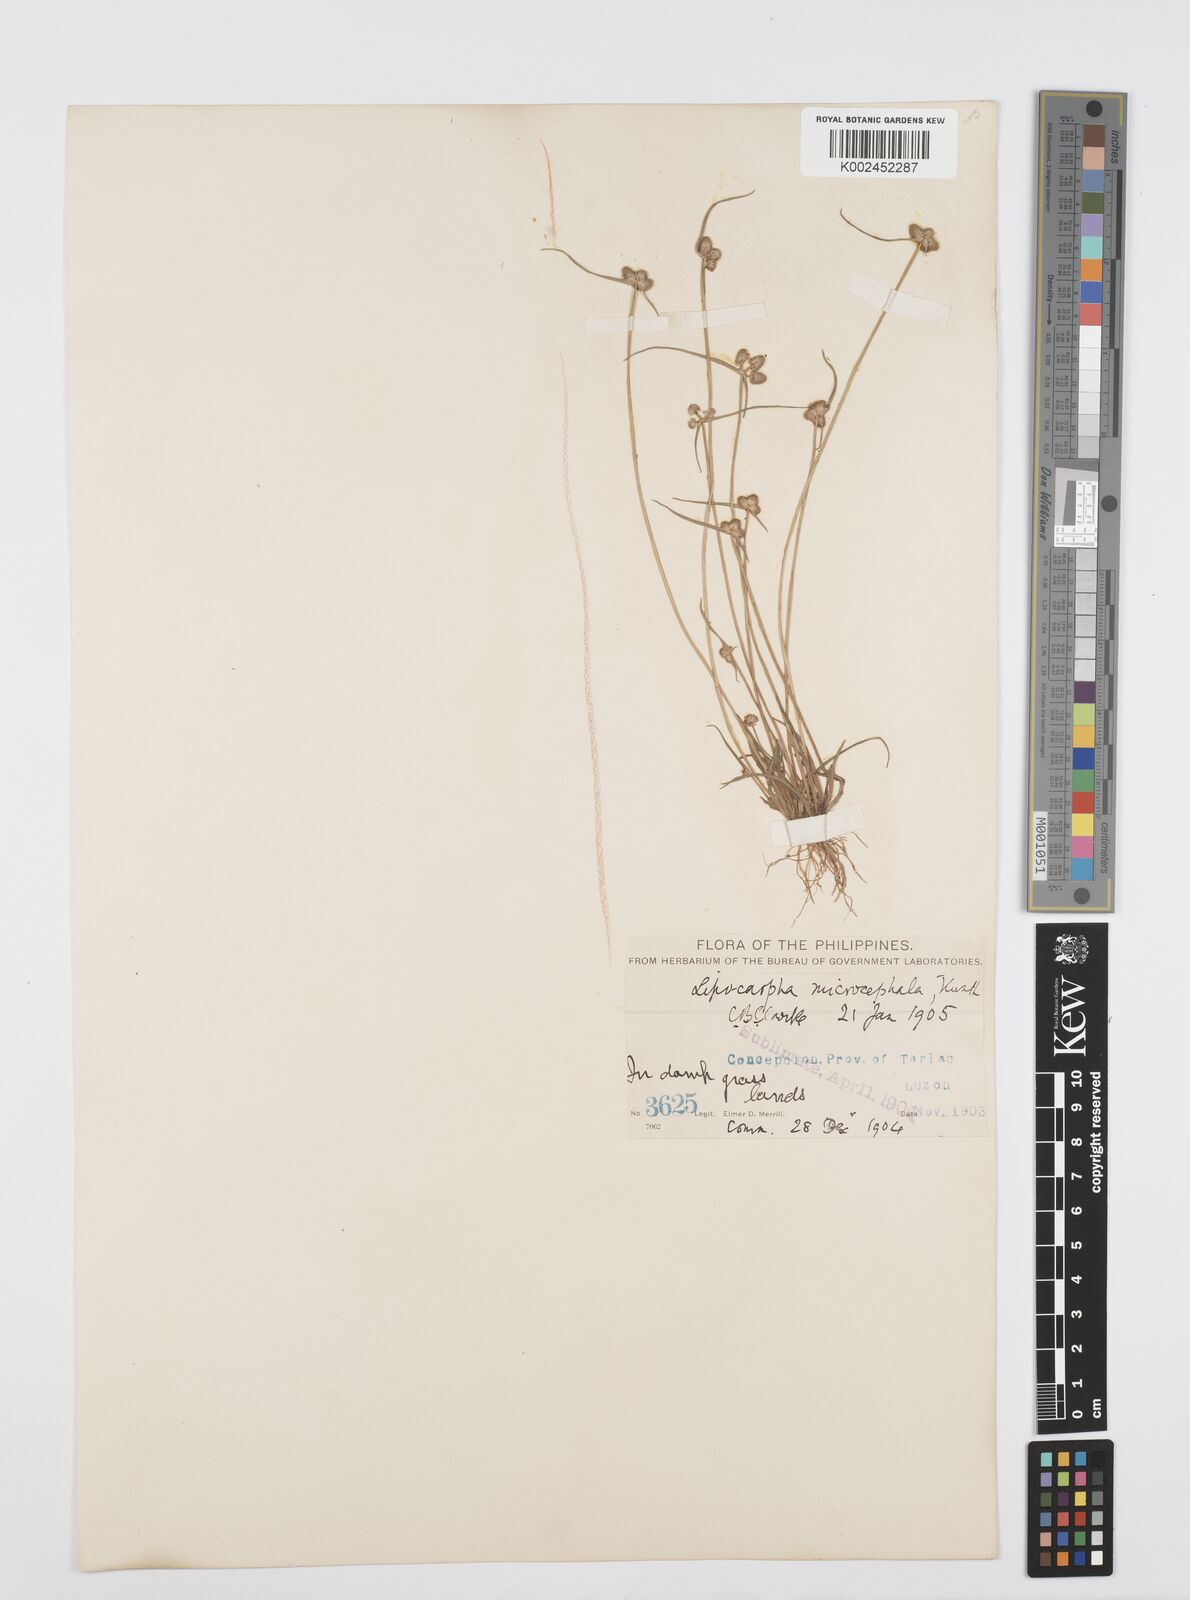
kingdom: Plantae
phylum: Tracheophyta
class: Liliopsida
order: Poales
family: Cyperaceae
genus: Cyperus
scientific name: Cyperus microcephalus
